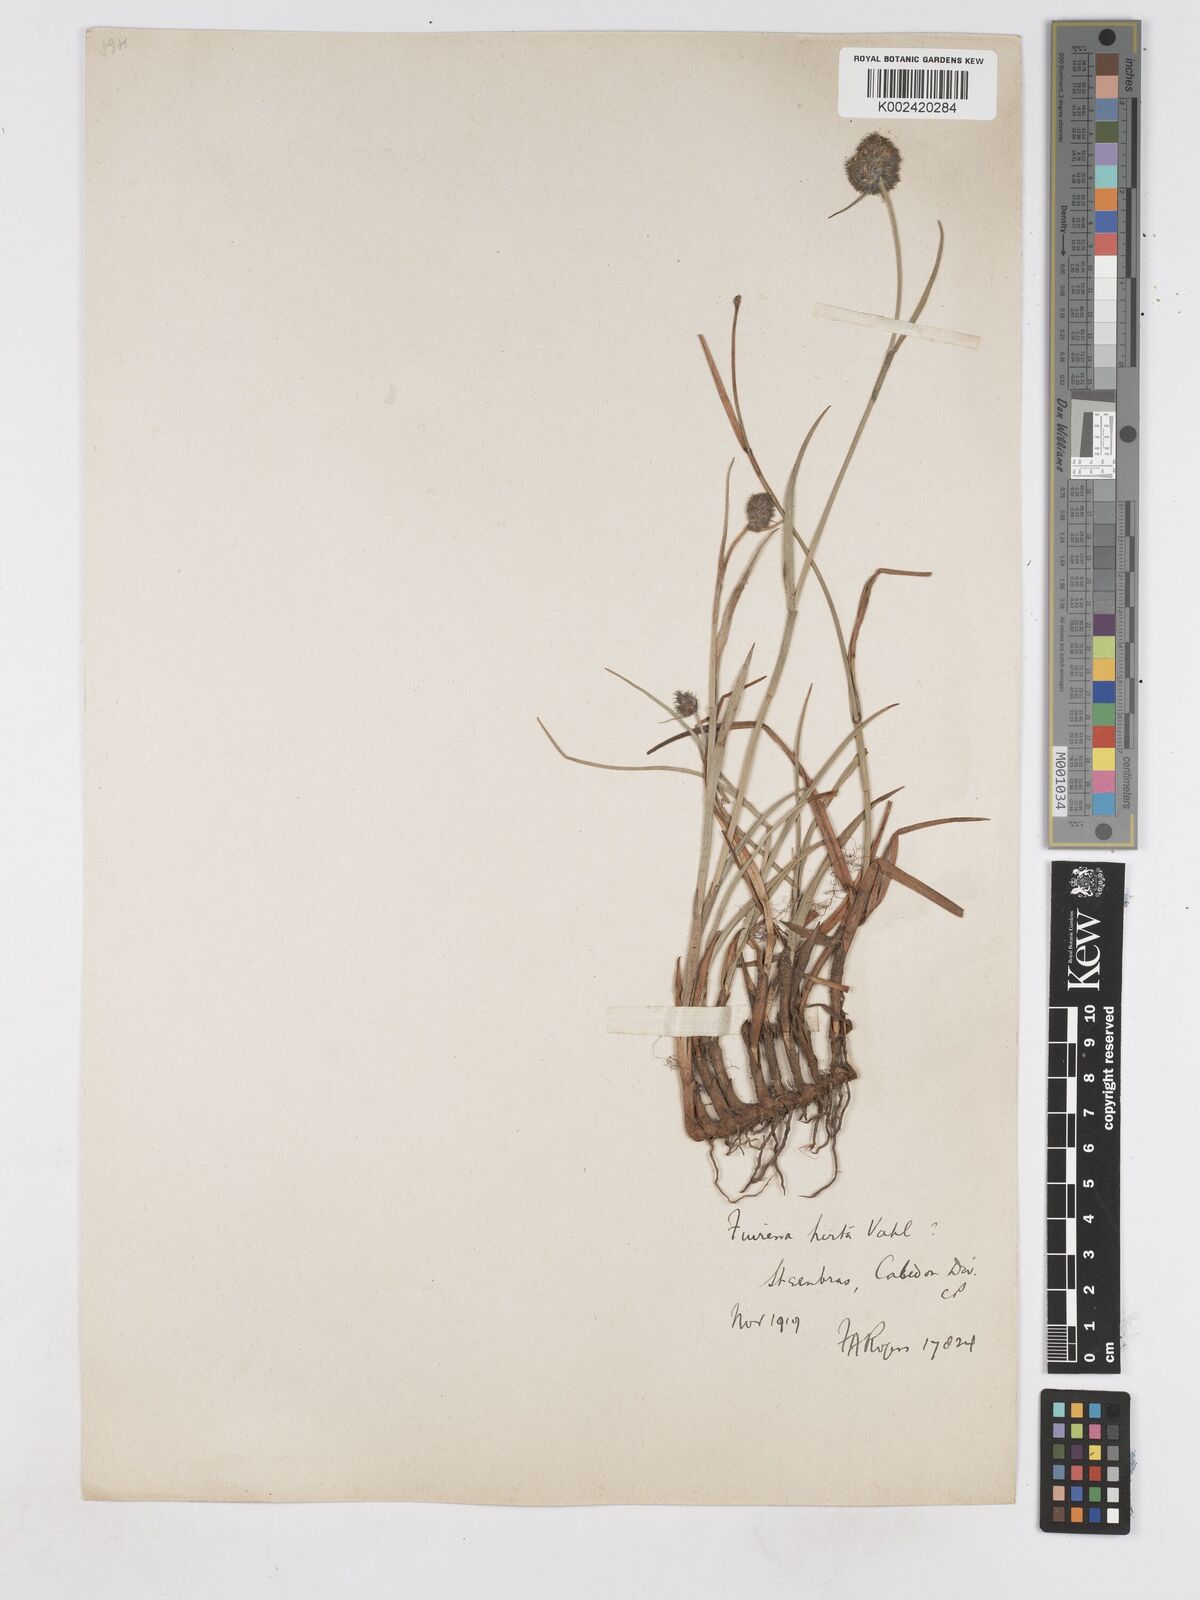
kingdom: Plantae
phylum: Tracheophyta
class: Liliopsida
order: Poales
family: Cyperaceae
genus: Fuirena
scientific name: Fuirena hirsuta
